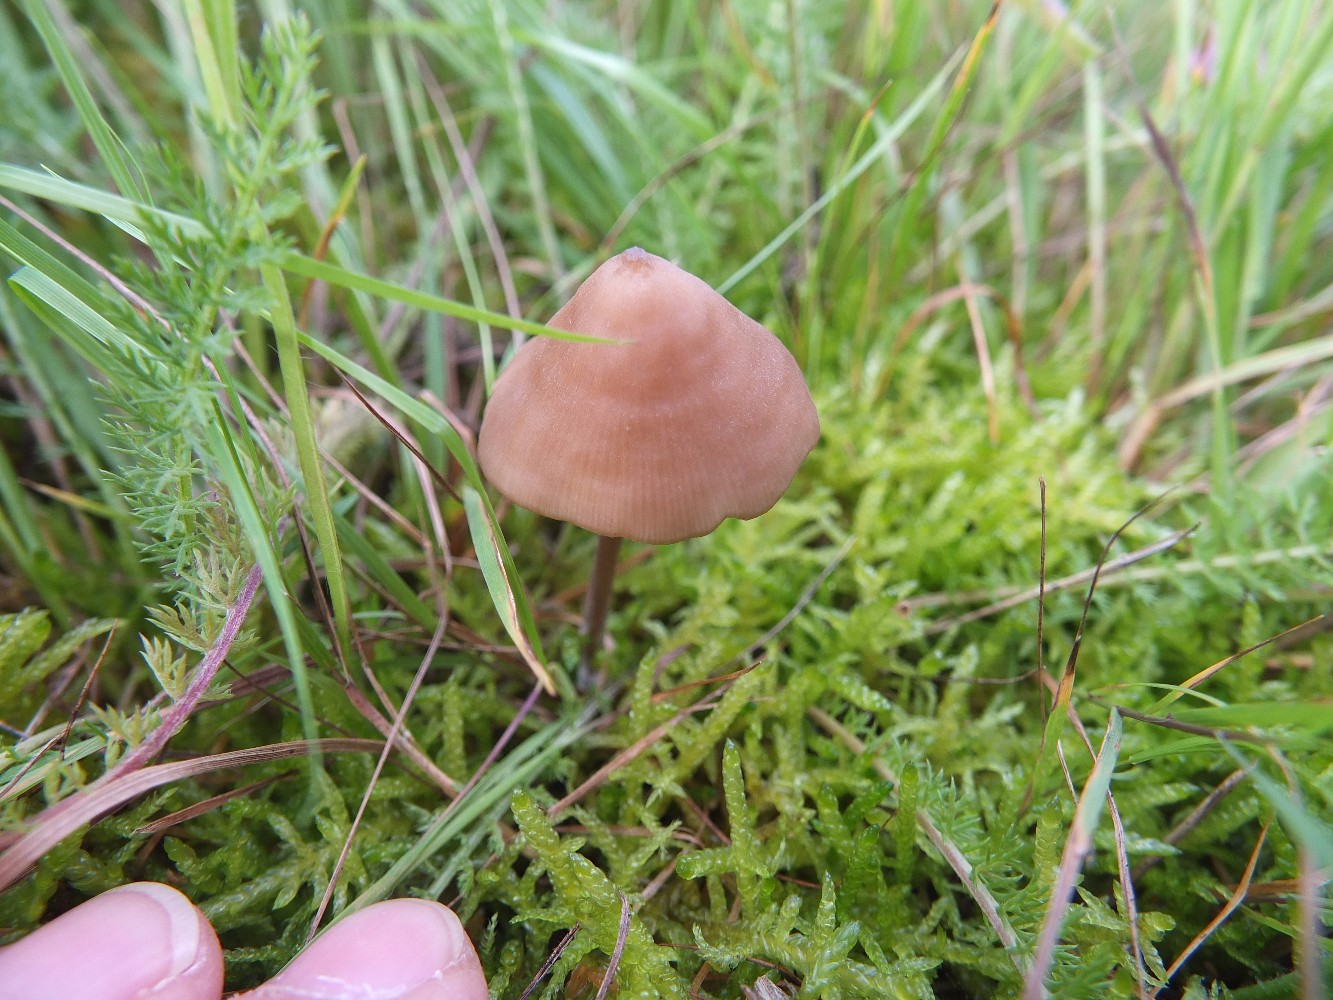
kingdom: Fungi
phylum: Basidiomycota
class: Agaricomycetes
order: Agaricales
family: Entolomataceae
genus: Entoloma
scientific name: Entoloma infula
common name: hvidbladet rødblad
